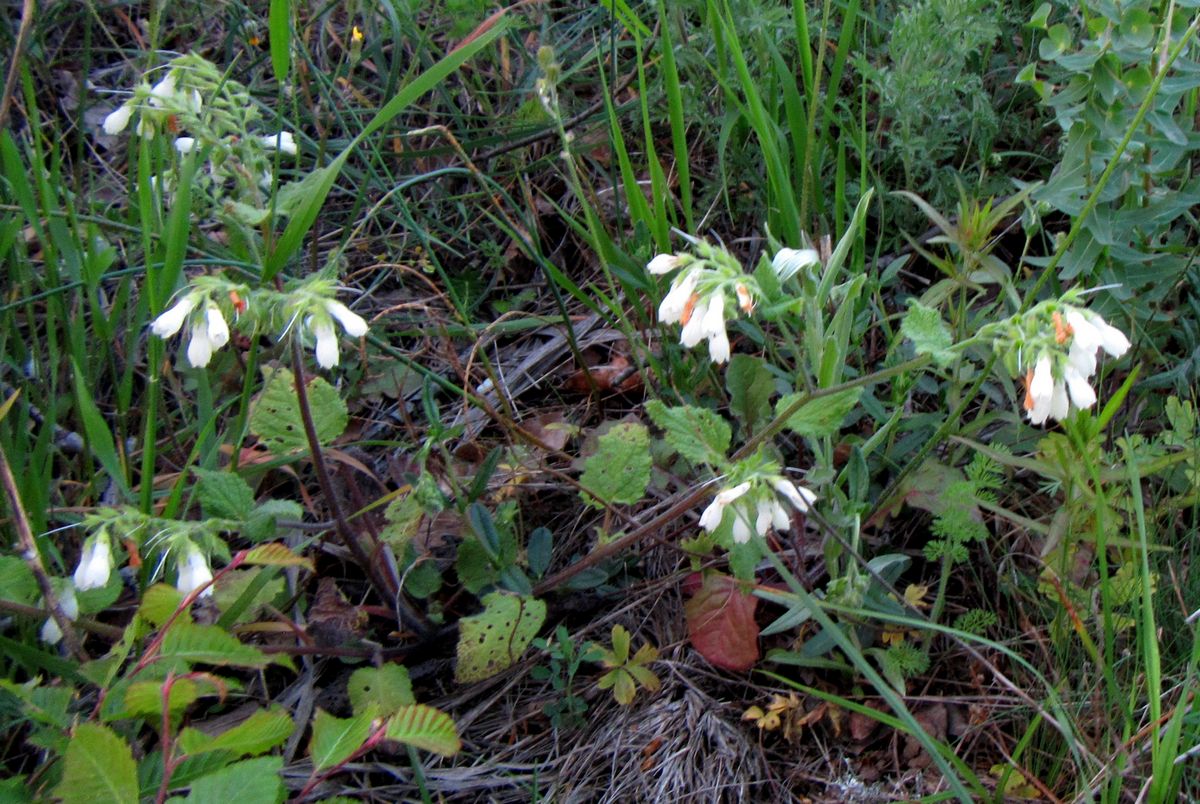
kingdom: Plantae
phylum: Tracheophyta
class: Magnoliopsida
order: Boraginales
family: Boraginaceae
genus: Symphytum
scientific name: Symphytum tauricum
